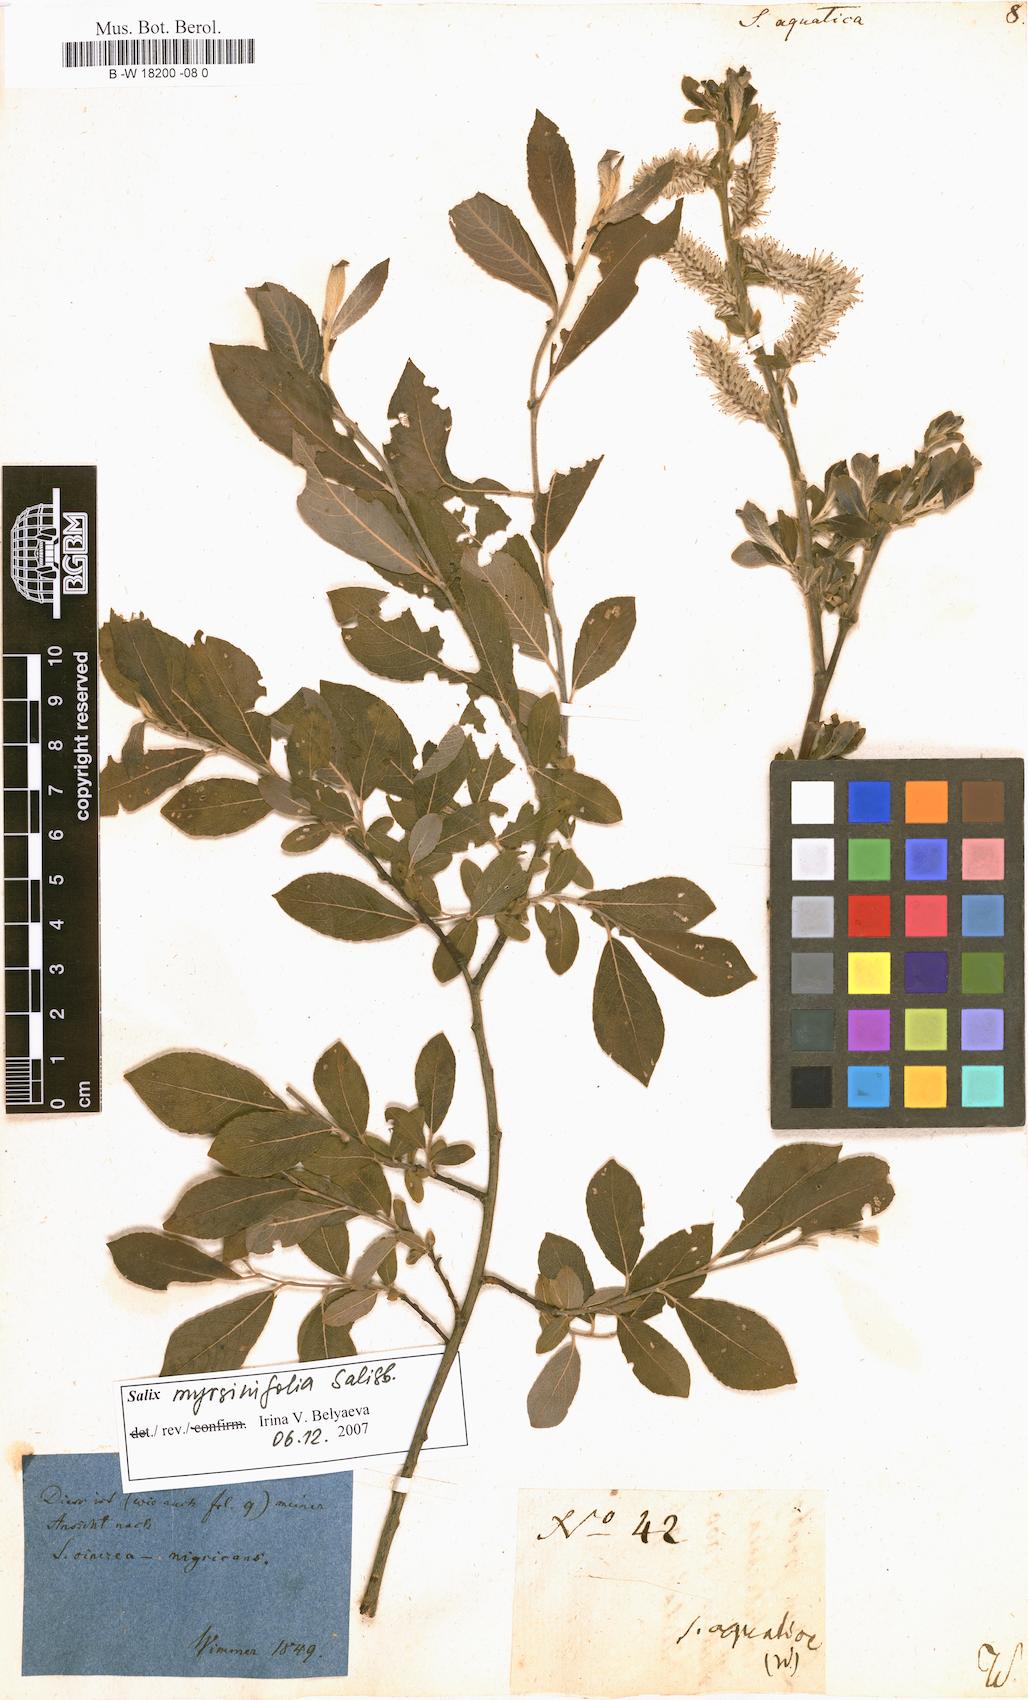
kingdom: Plantae
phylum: Tracheophyta
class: Magnoliopsida
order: Malpighiales
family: Salicaceae
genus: Salix
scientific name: Salix
